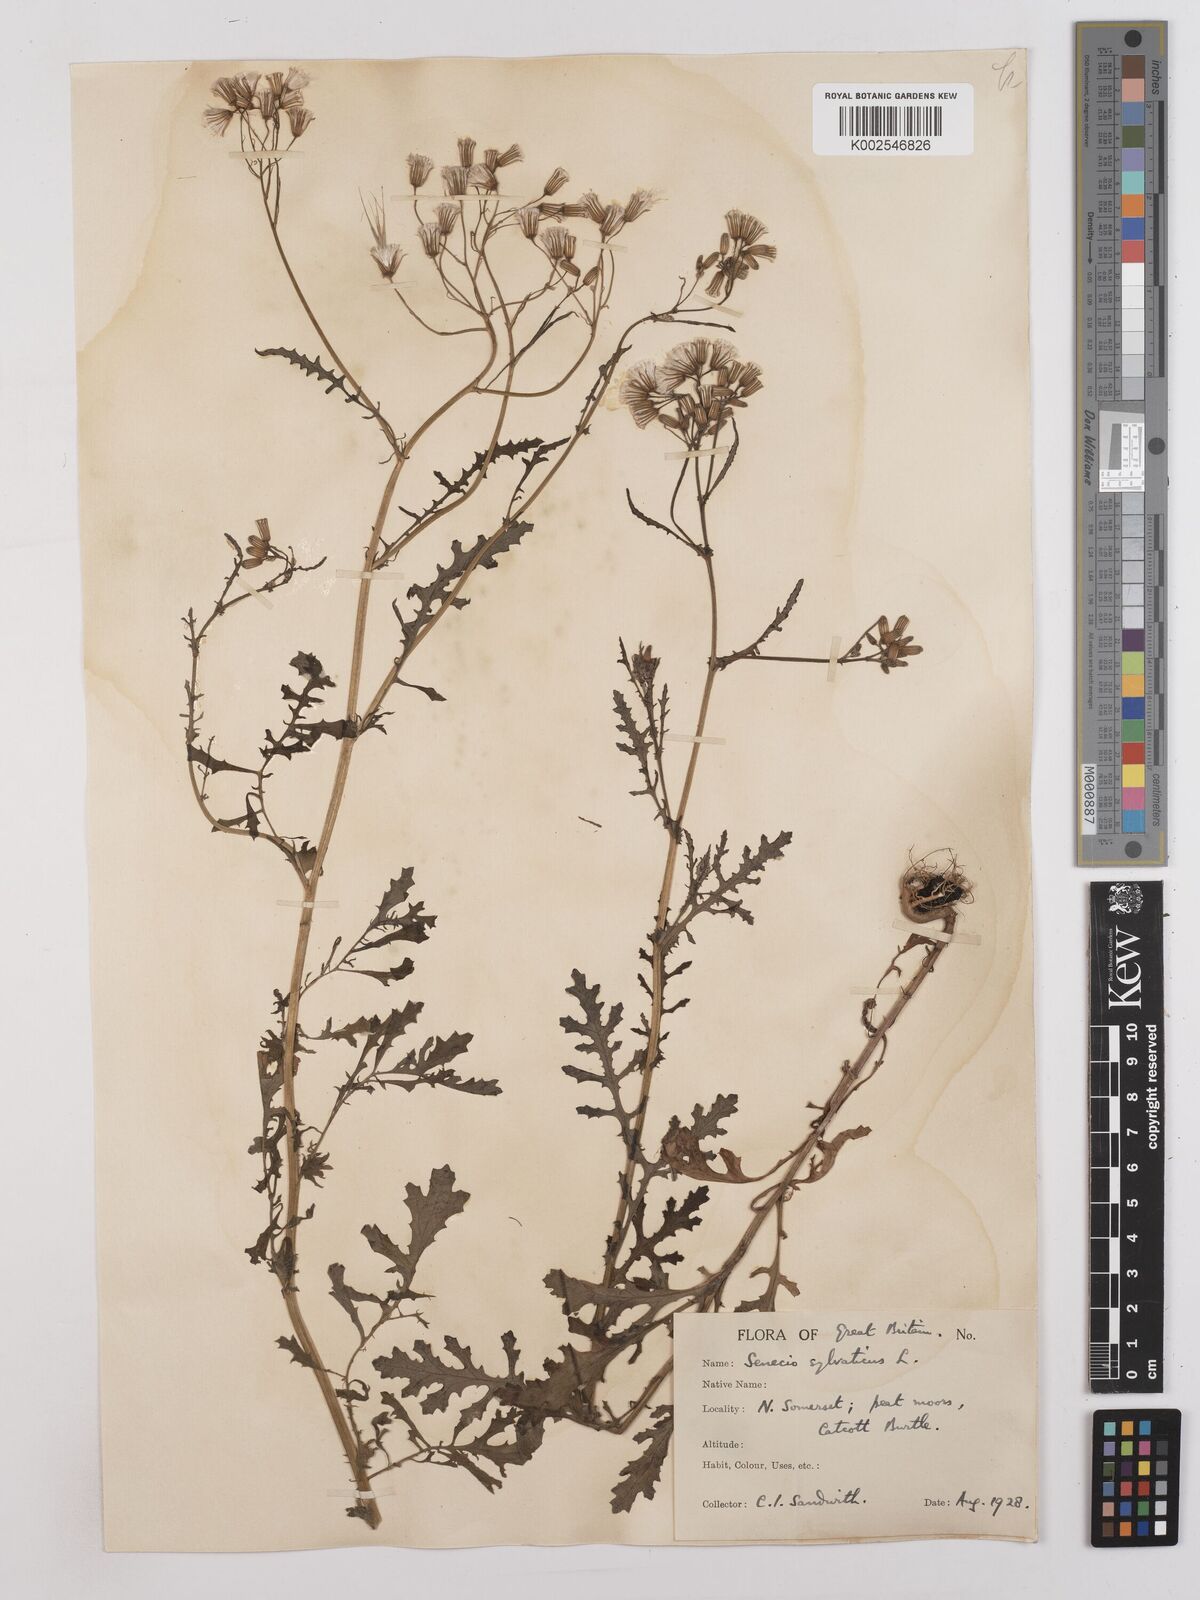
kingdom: Plantae
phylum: Tracheophyta
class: Magnoliopsida
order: Asterales
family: Asteraceae
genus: Senecio
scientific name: Senecio sylvaticus
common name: Woodland ragwort
